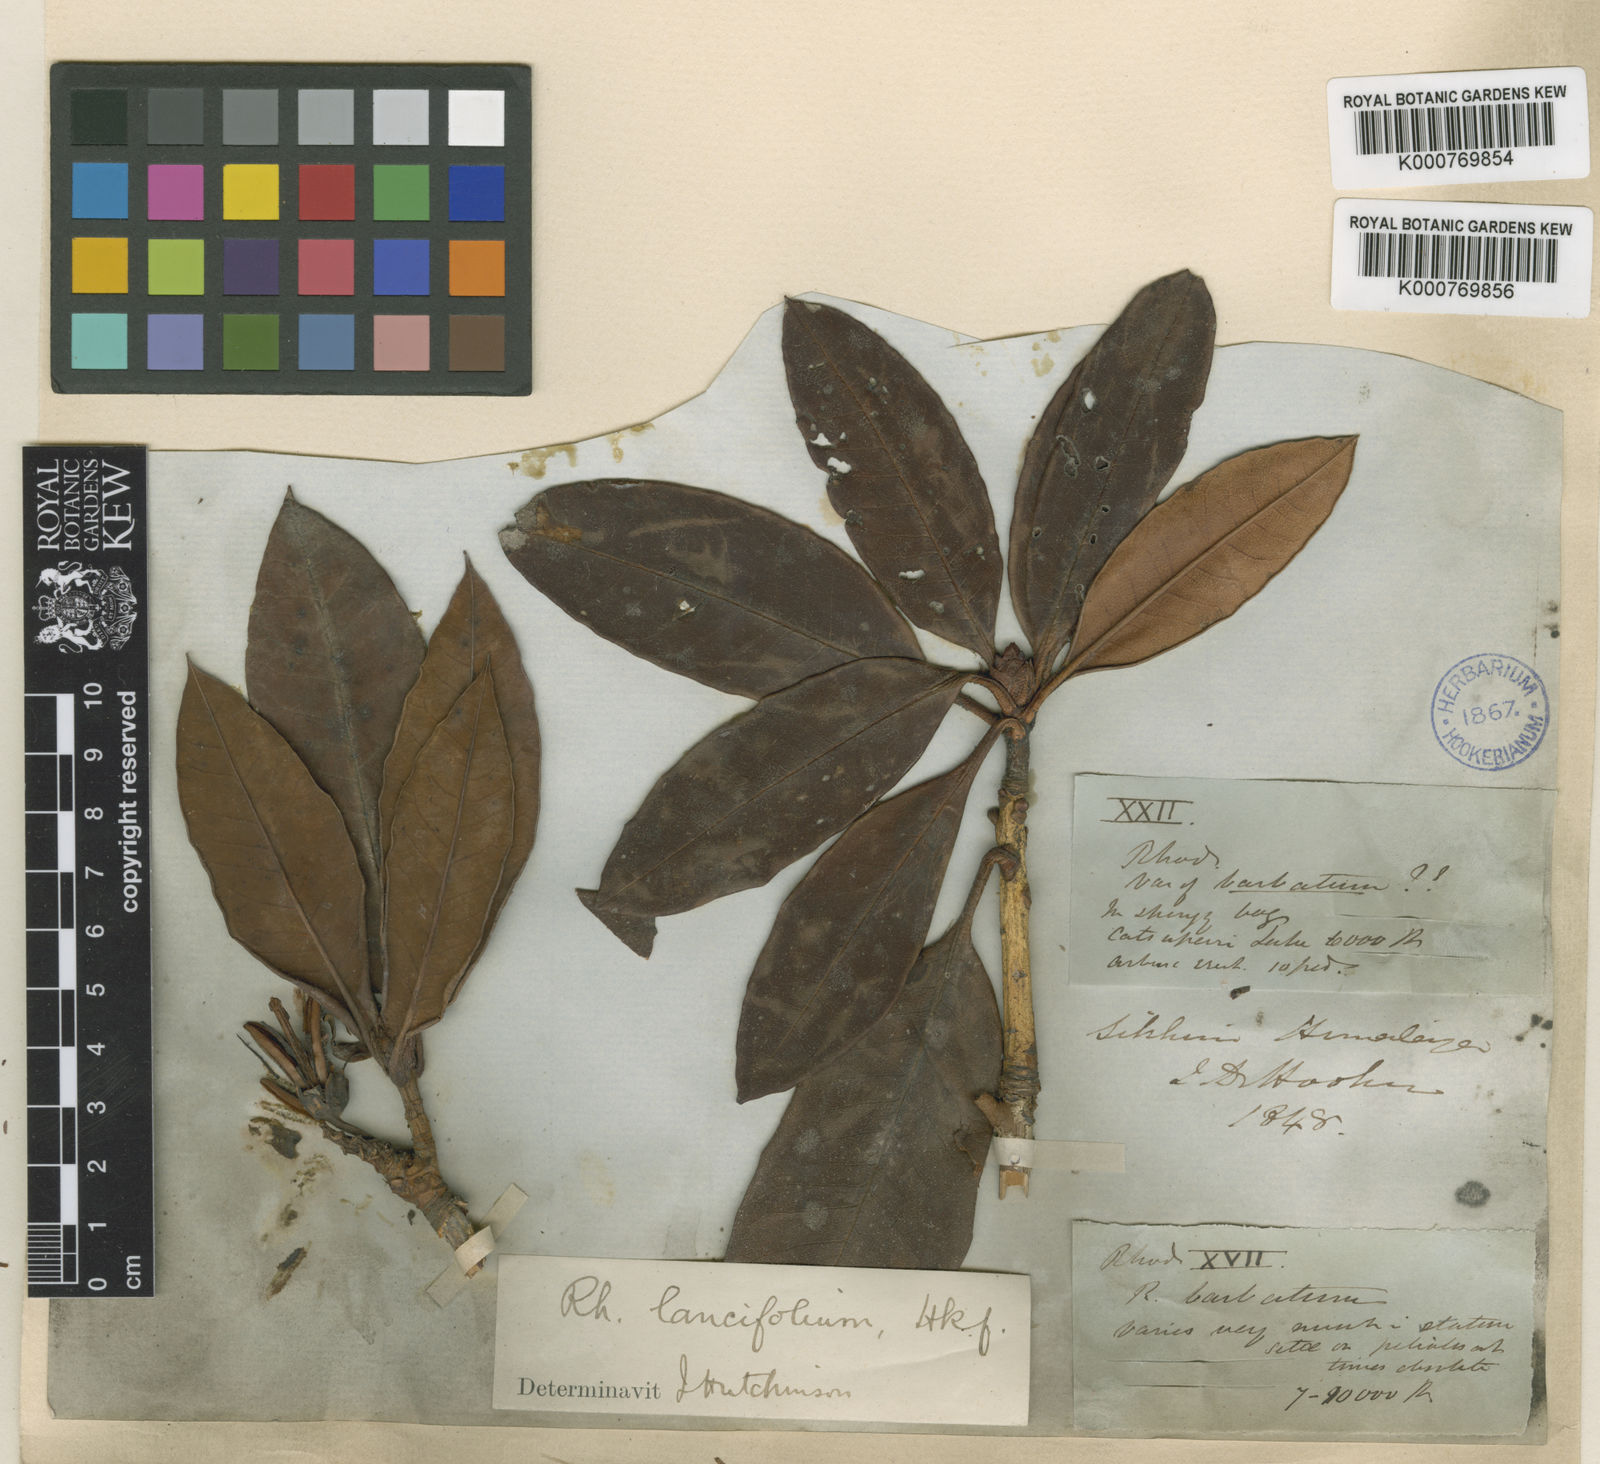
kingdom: Plantae
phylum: Tracheophyta
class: Magnoliopsida
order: Ericales
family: Ericaceae
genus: Rhododendron
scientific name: Rhododendron
